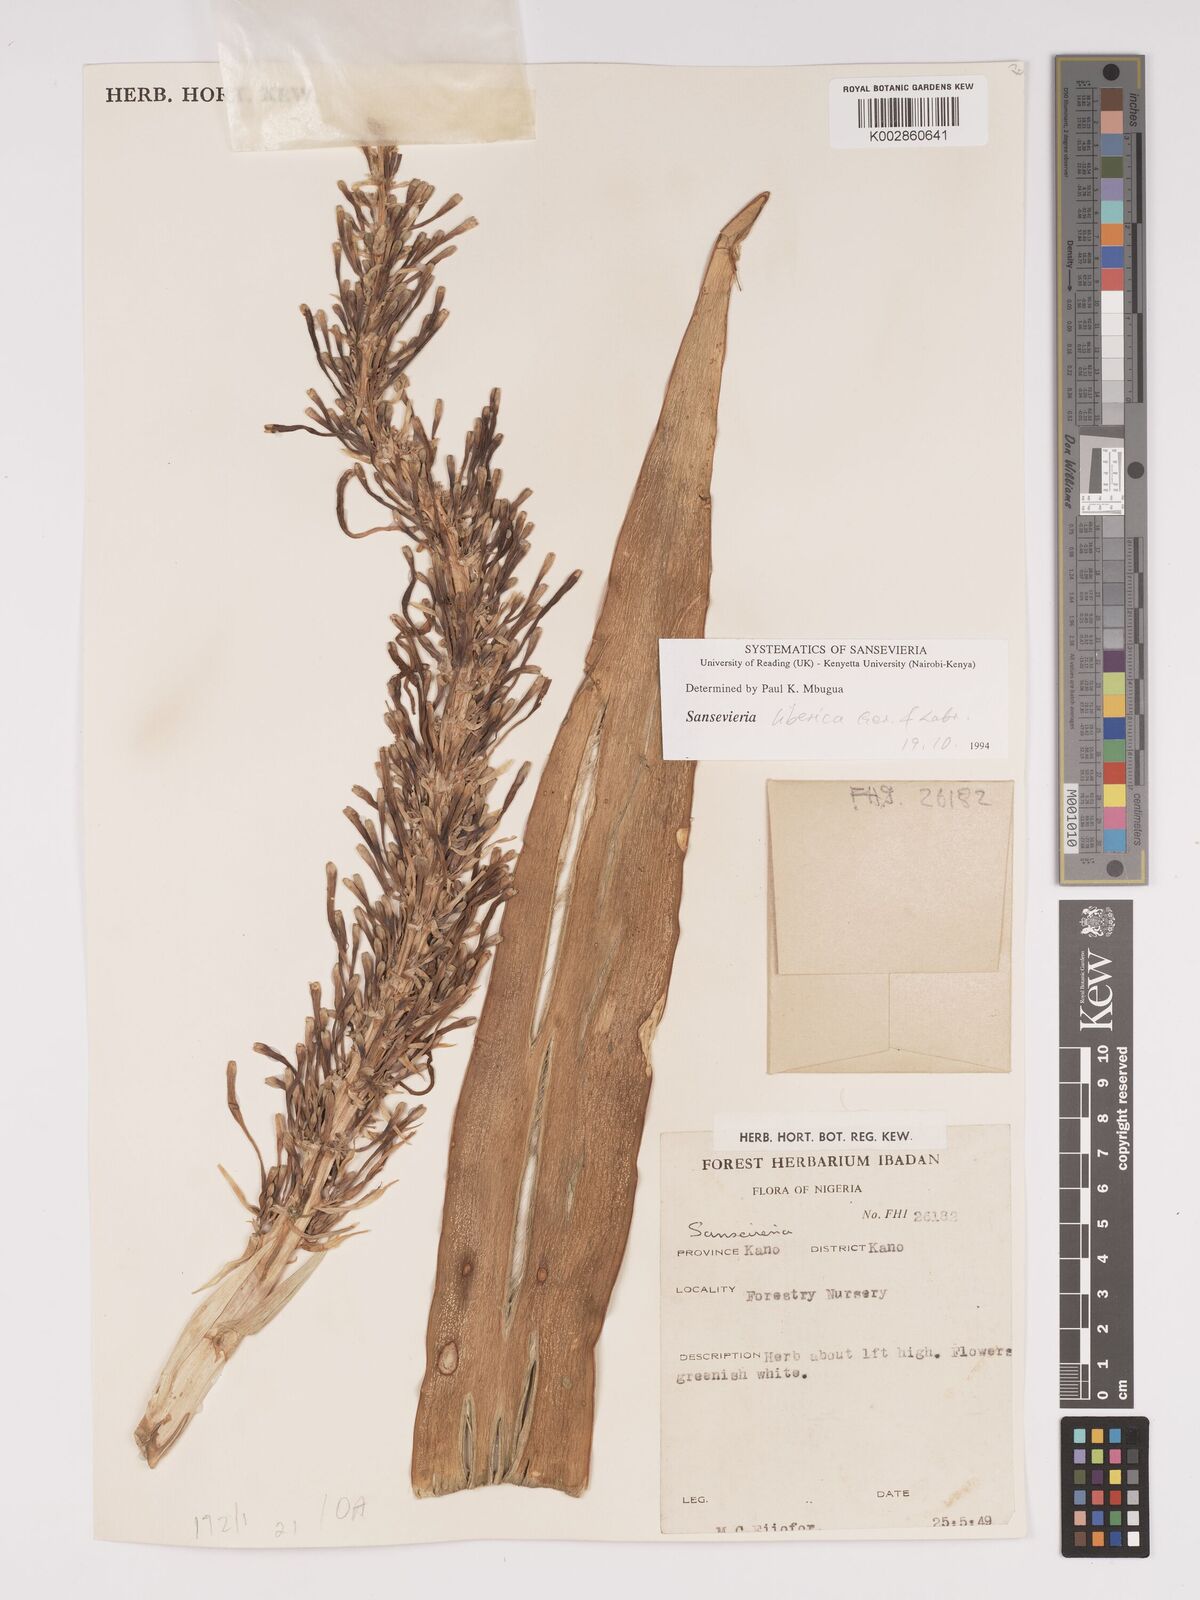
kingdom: Plantae
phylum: Tracheophyta
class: Liliopsida
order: Asparagales
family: Asparagaceae
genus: Dracaena
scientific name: Dracaena liberica
